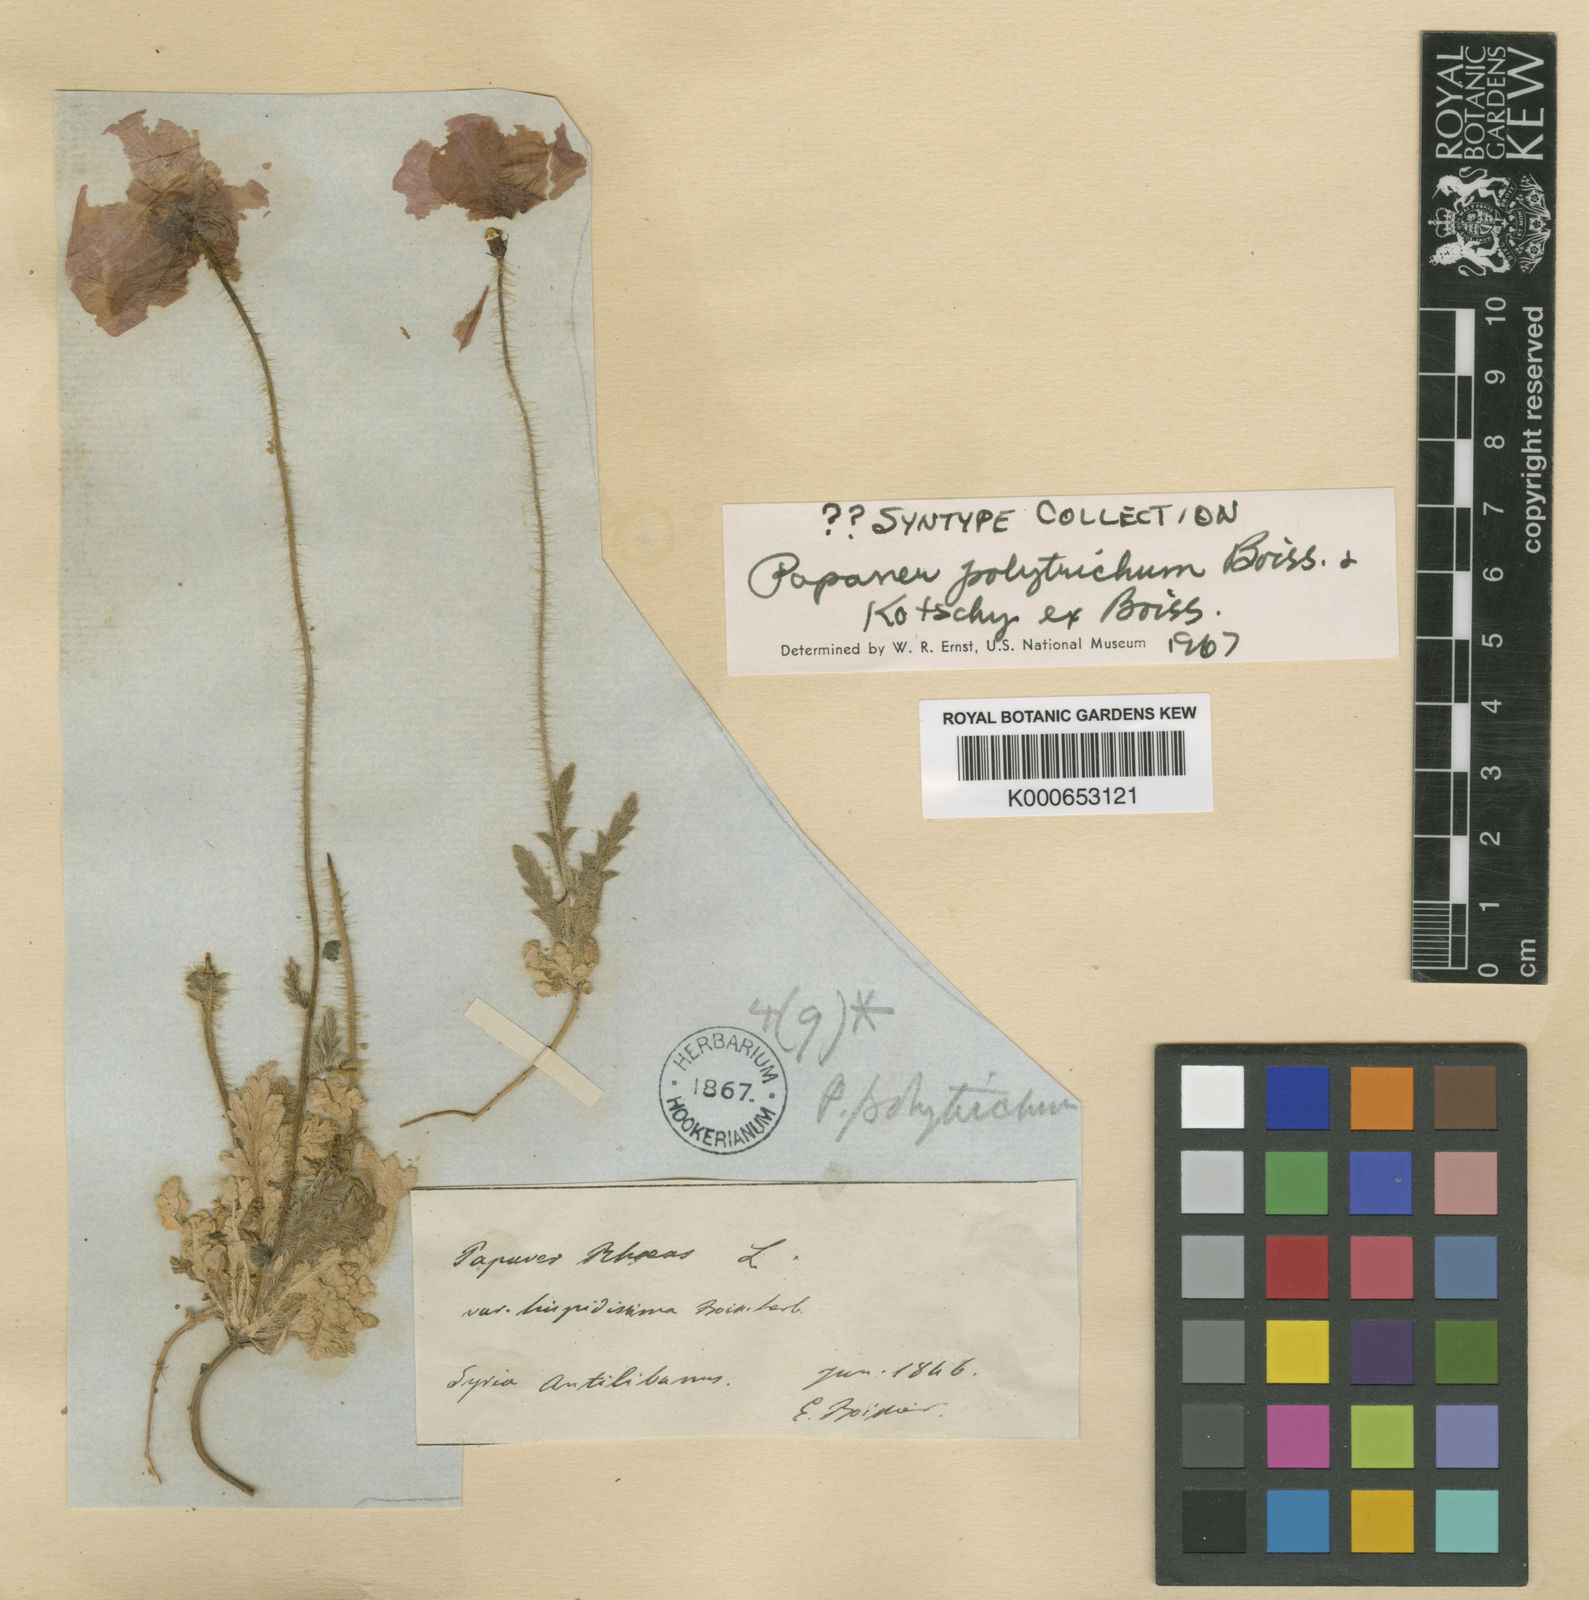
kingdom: Plantae
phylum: Tracheophyta
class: Magnoliopsida
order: Ranunculales
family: Papaveraceae
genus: Papaver
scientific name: Papaver rhoeas
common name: Corn poppy
